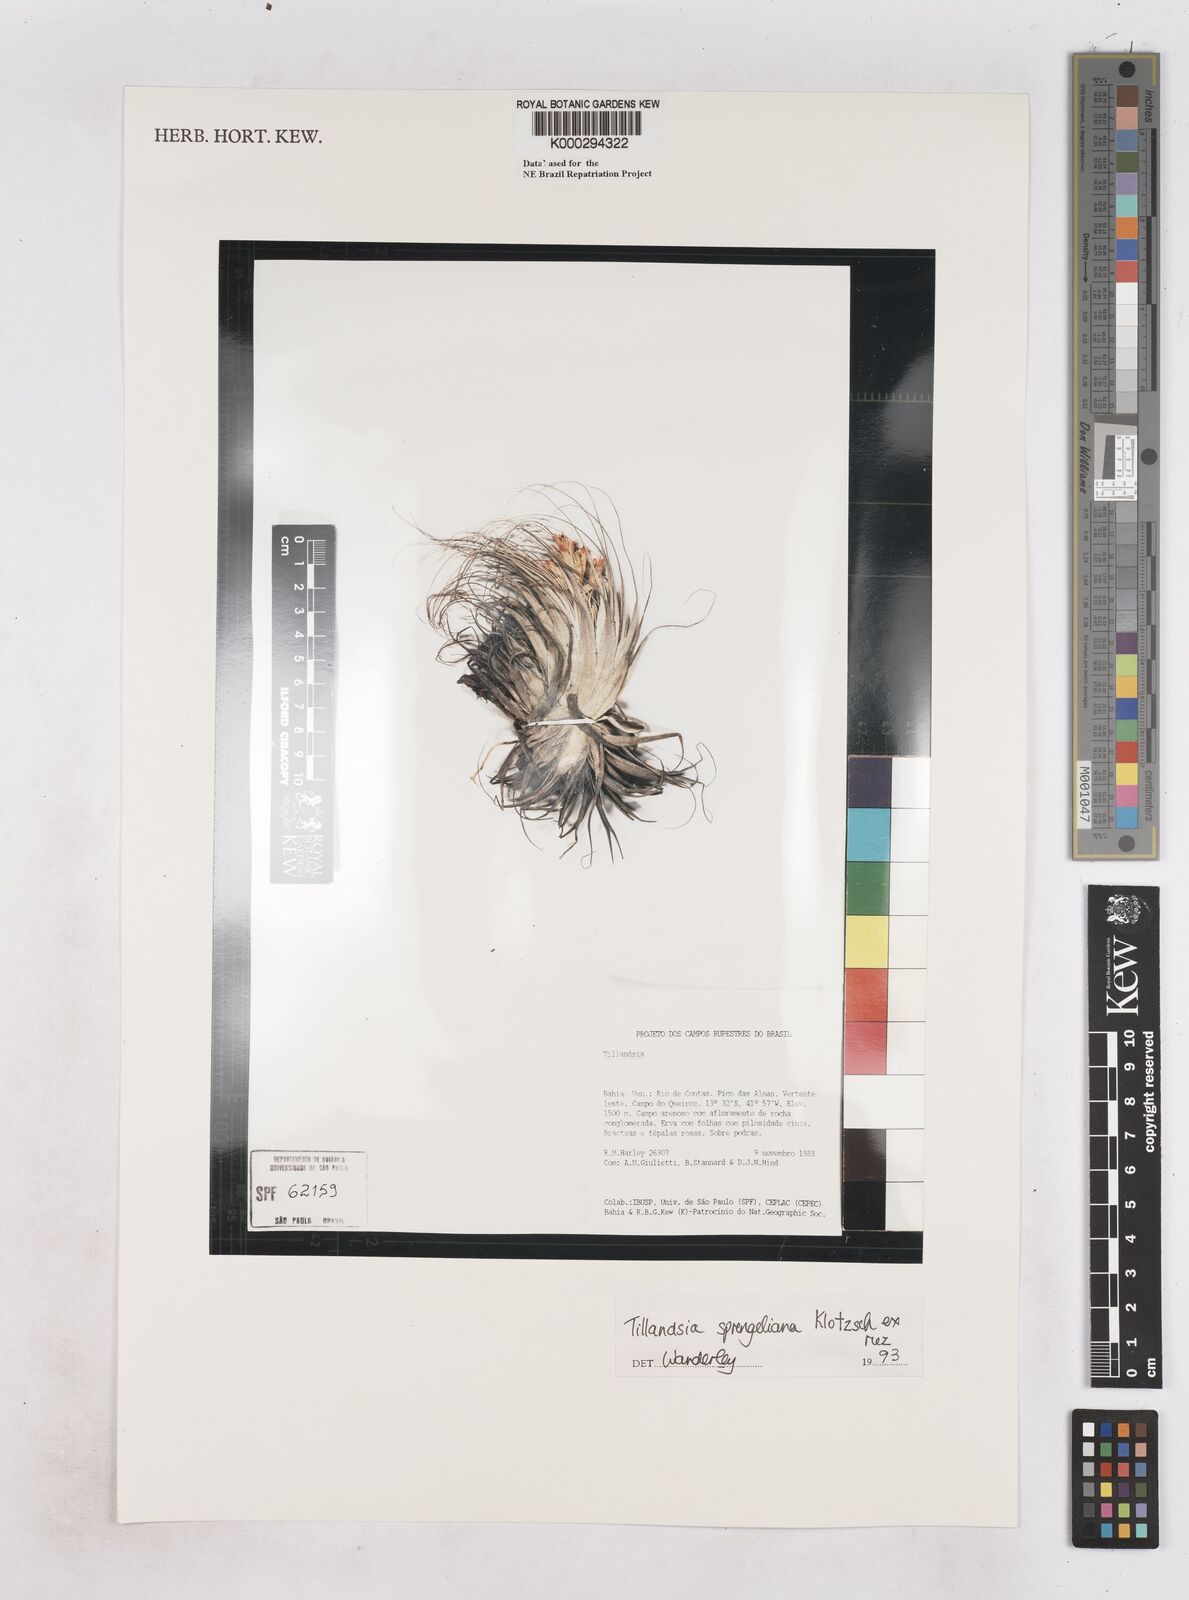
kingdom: Plantae
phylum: Tracheophyta
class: Liliopsida
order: Poales
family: Bromeliaceae
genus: Tillandsia
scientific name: Tillandsia sprengeliana
